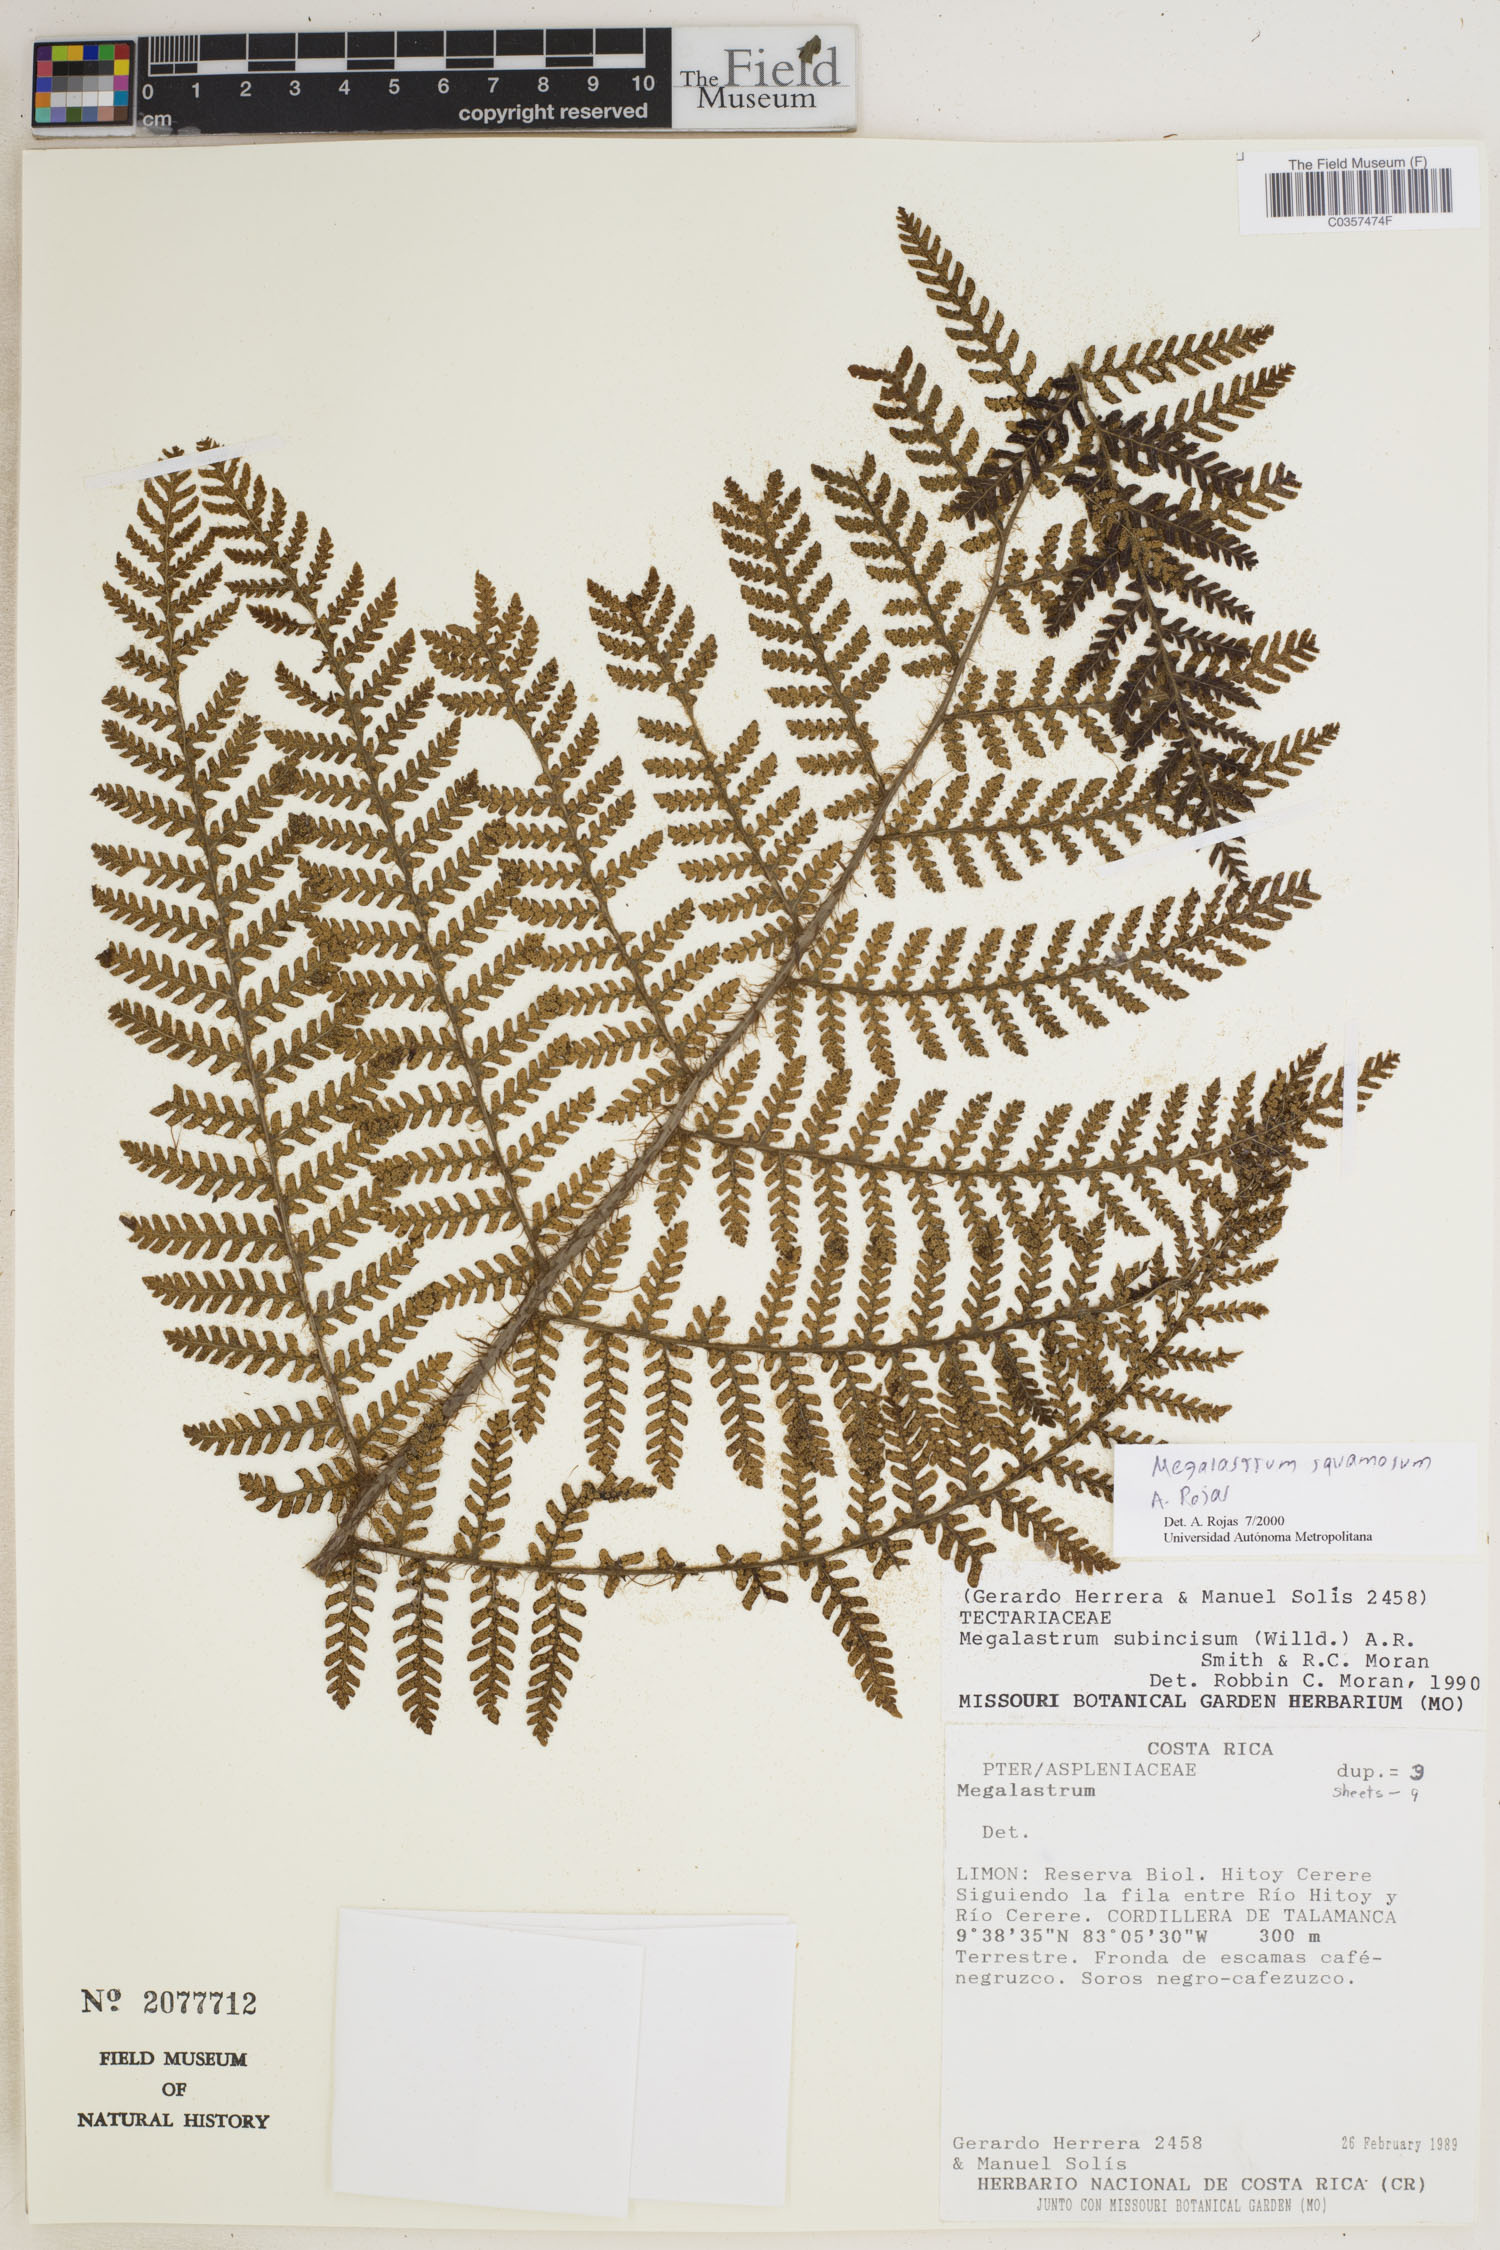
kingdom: Plantae
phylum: Tracheophyta
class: Polypodiopsida
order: Polypodiales
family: Dryopteridaceae
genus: Megalastrum
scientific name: Megalastrum squamosum
